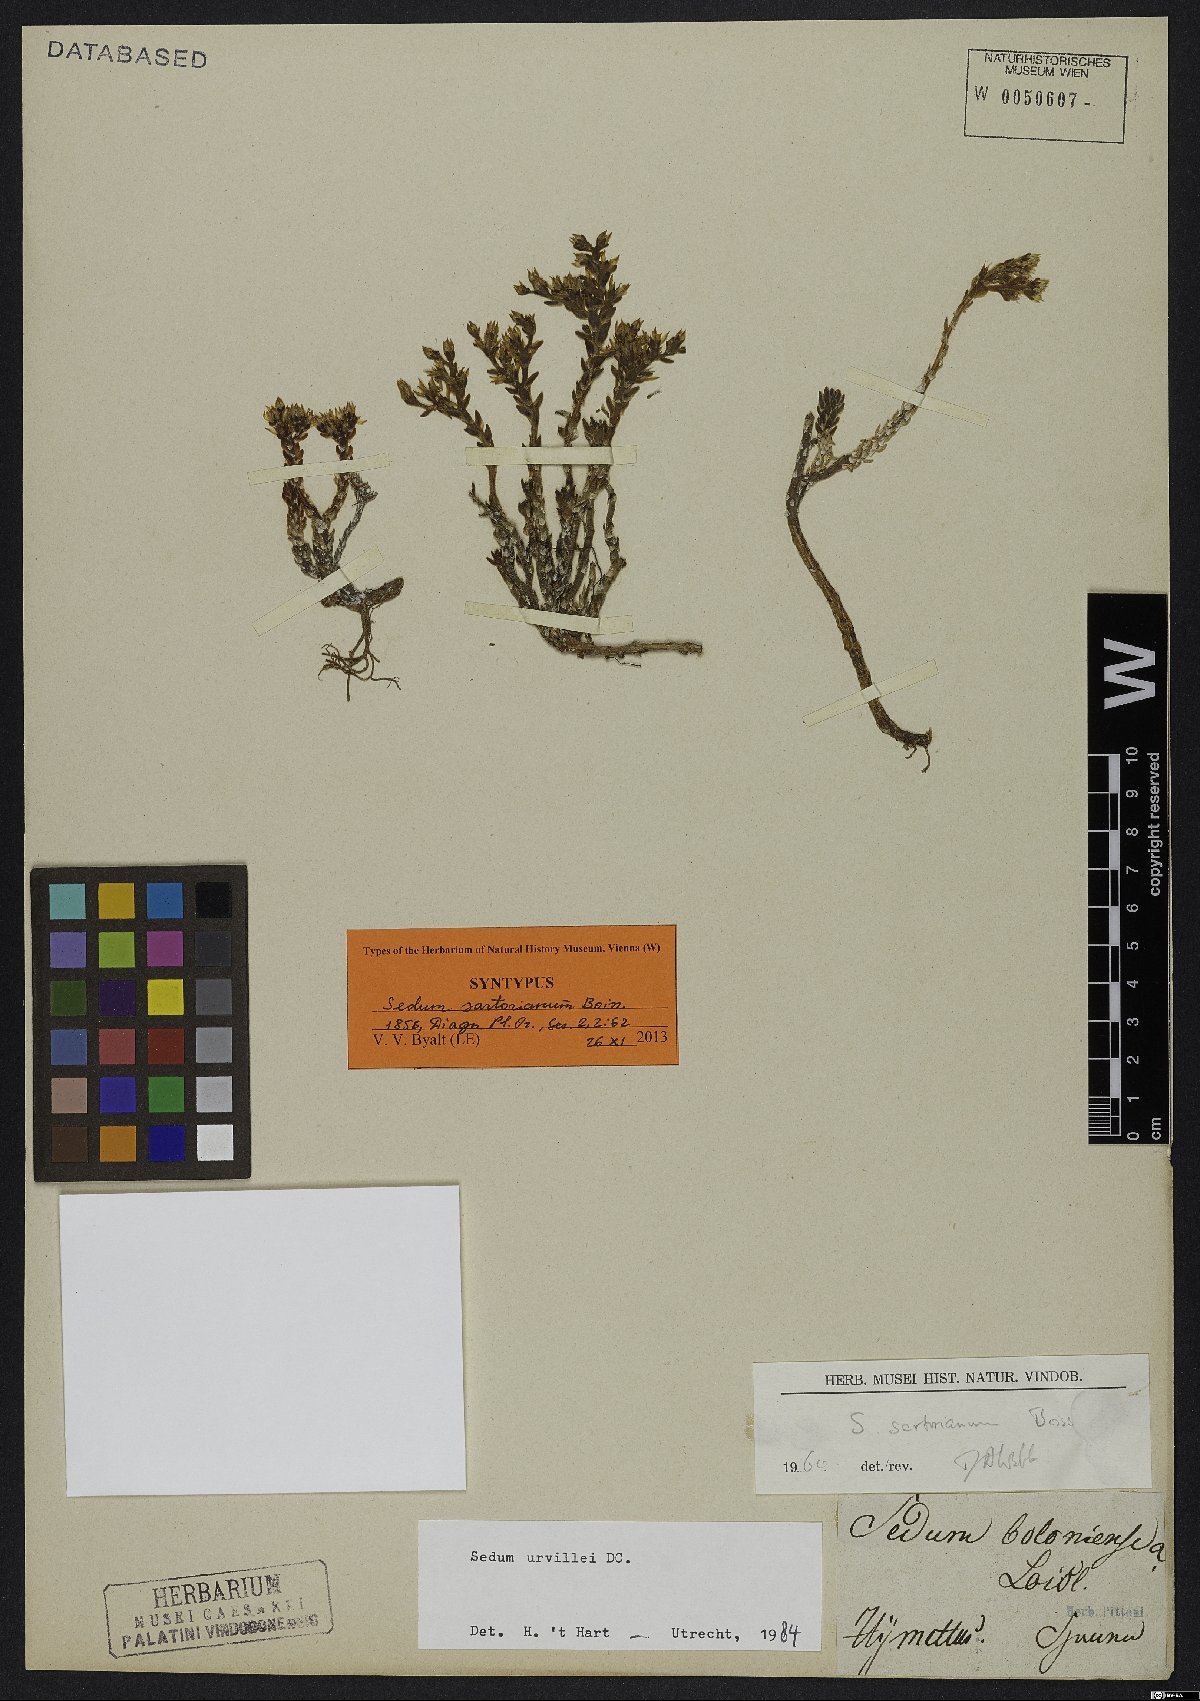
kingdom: Plantae
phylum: Tracheophyta
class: Magnoliopsida
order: Saxifragales
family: Crassulaceae
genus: Sedum
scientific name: Sedum urvillei
